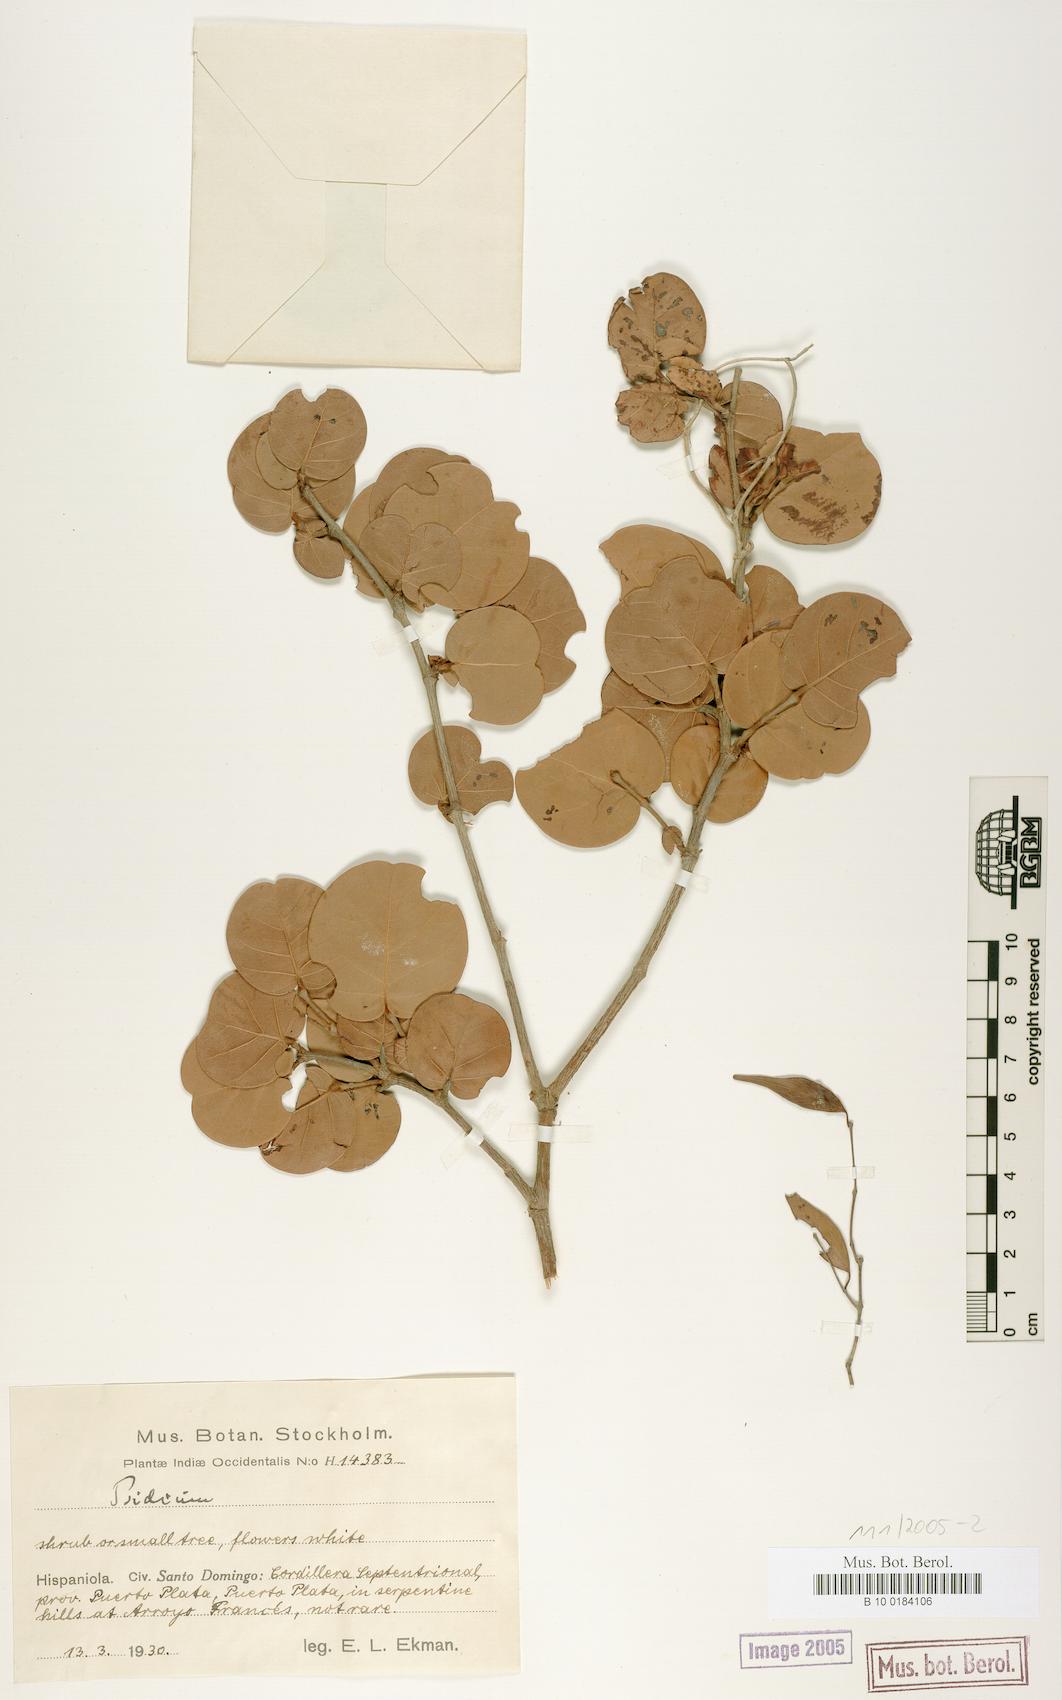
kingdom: Plantae
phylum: Tracheophyta
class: Magnoliopsida
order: Myrtales
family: Myrtaceae
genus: Psidium
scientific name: Psidium
